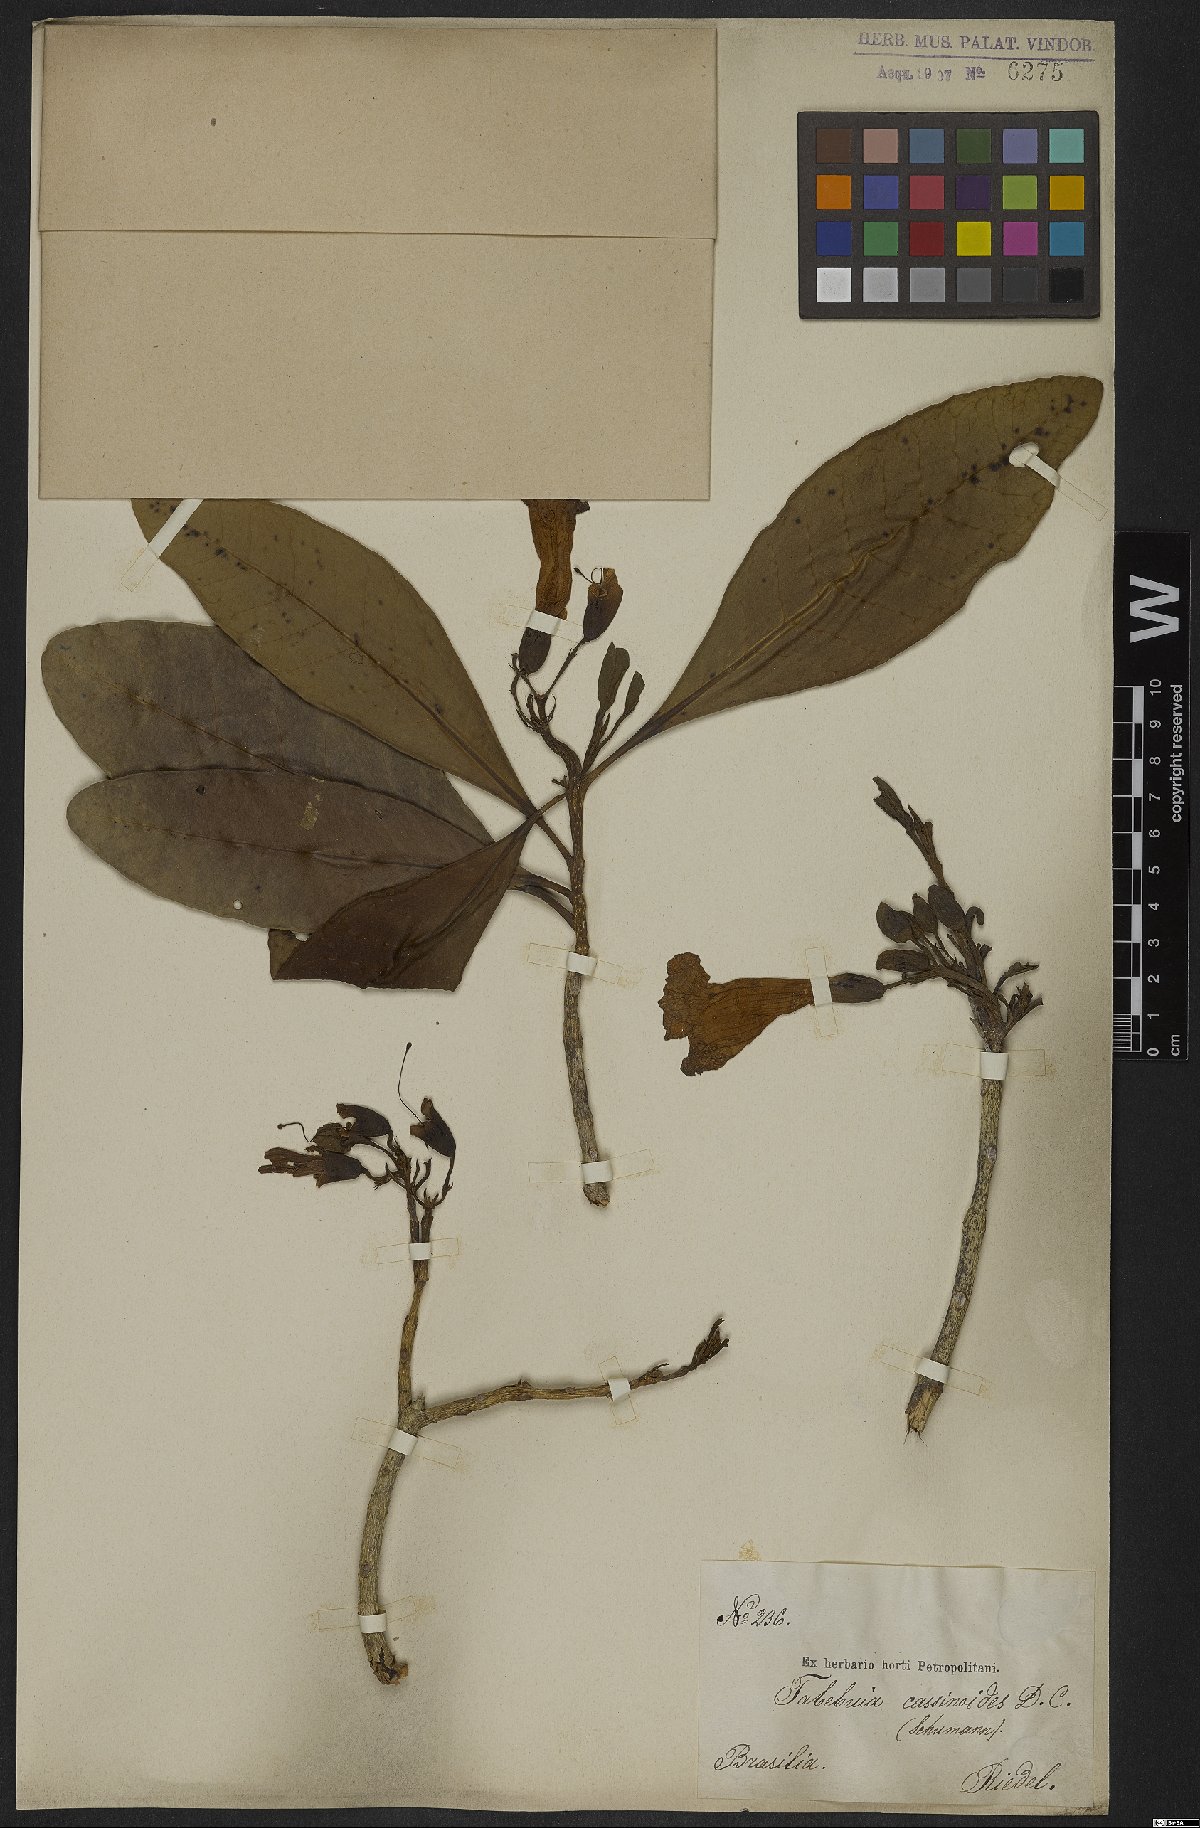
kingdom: Plantae
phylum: Tracheophyta
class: Magnoliopsida
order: Lamiales
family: Bignoniaceae
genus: Tabebuia
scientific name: Tabebuia cassinoides
